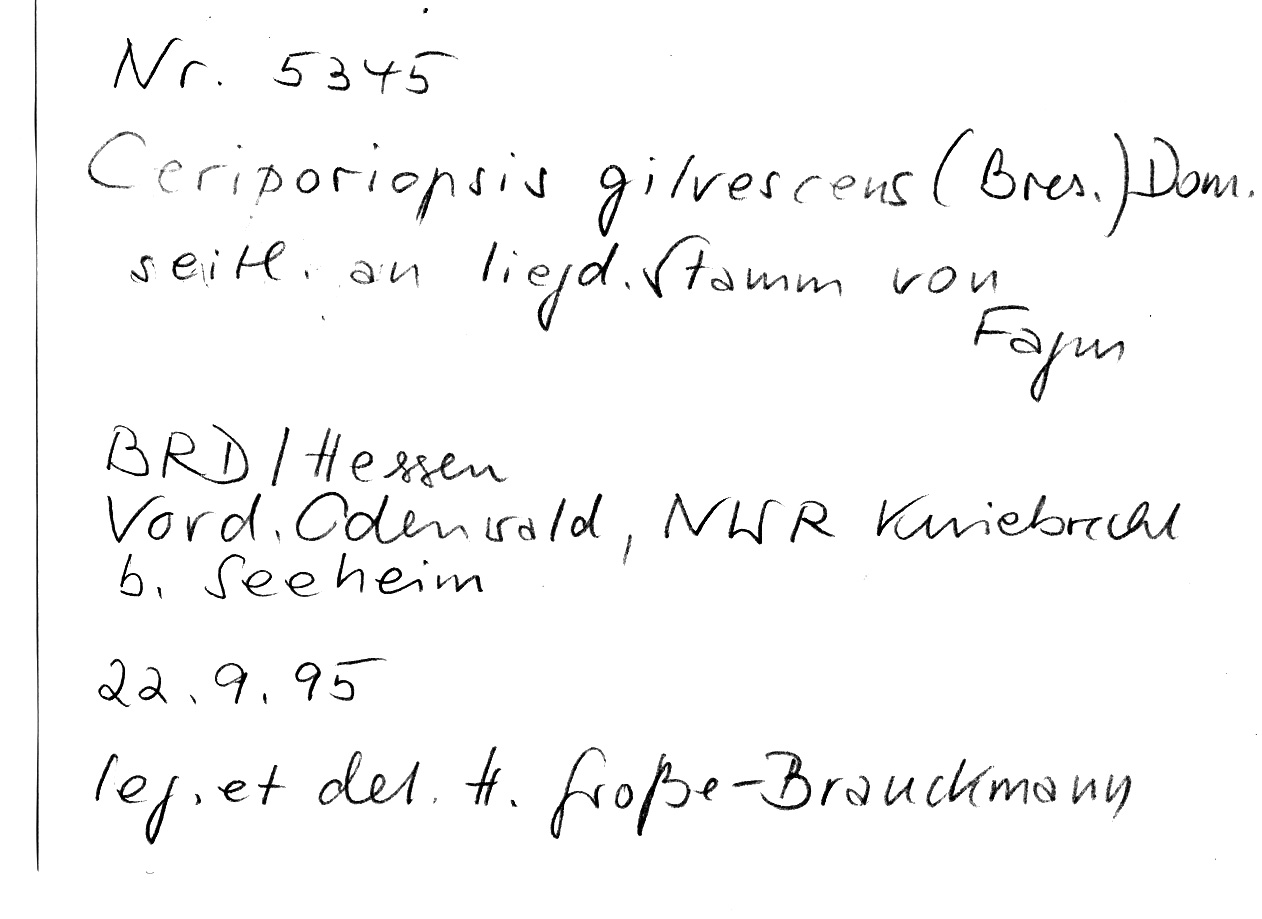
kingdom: Plantae
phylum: Tracheophyta
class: Magnoliopsida
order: Fagales
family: Fagaceae
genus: Fagus
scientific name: Fagus sylvatica
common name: Beech
